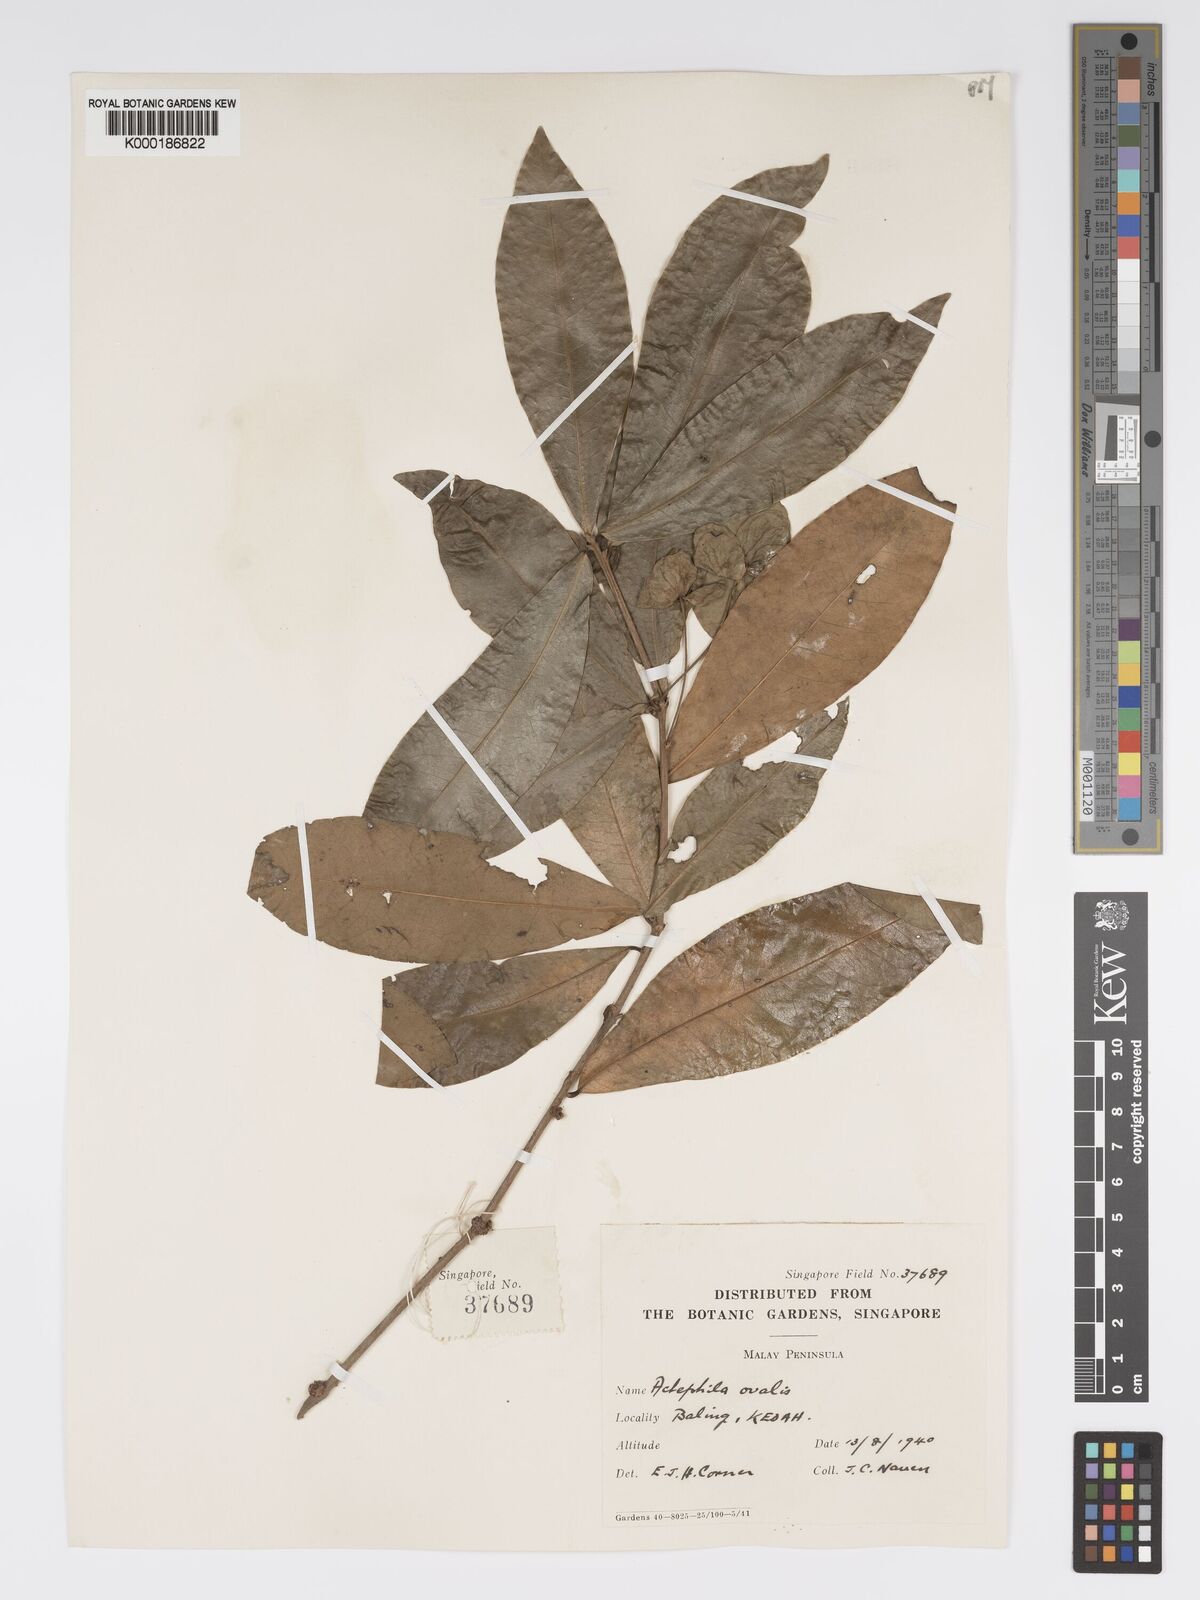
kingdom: Plantae
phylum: Tracheophyta
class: Magnoliopsida
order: Malpighiales
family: Phyllanthaceae
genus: Actephila
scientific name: Actephila ovalis
